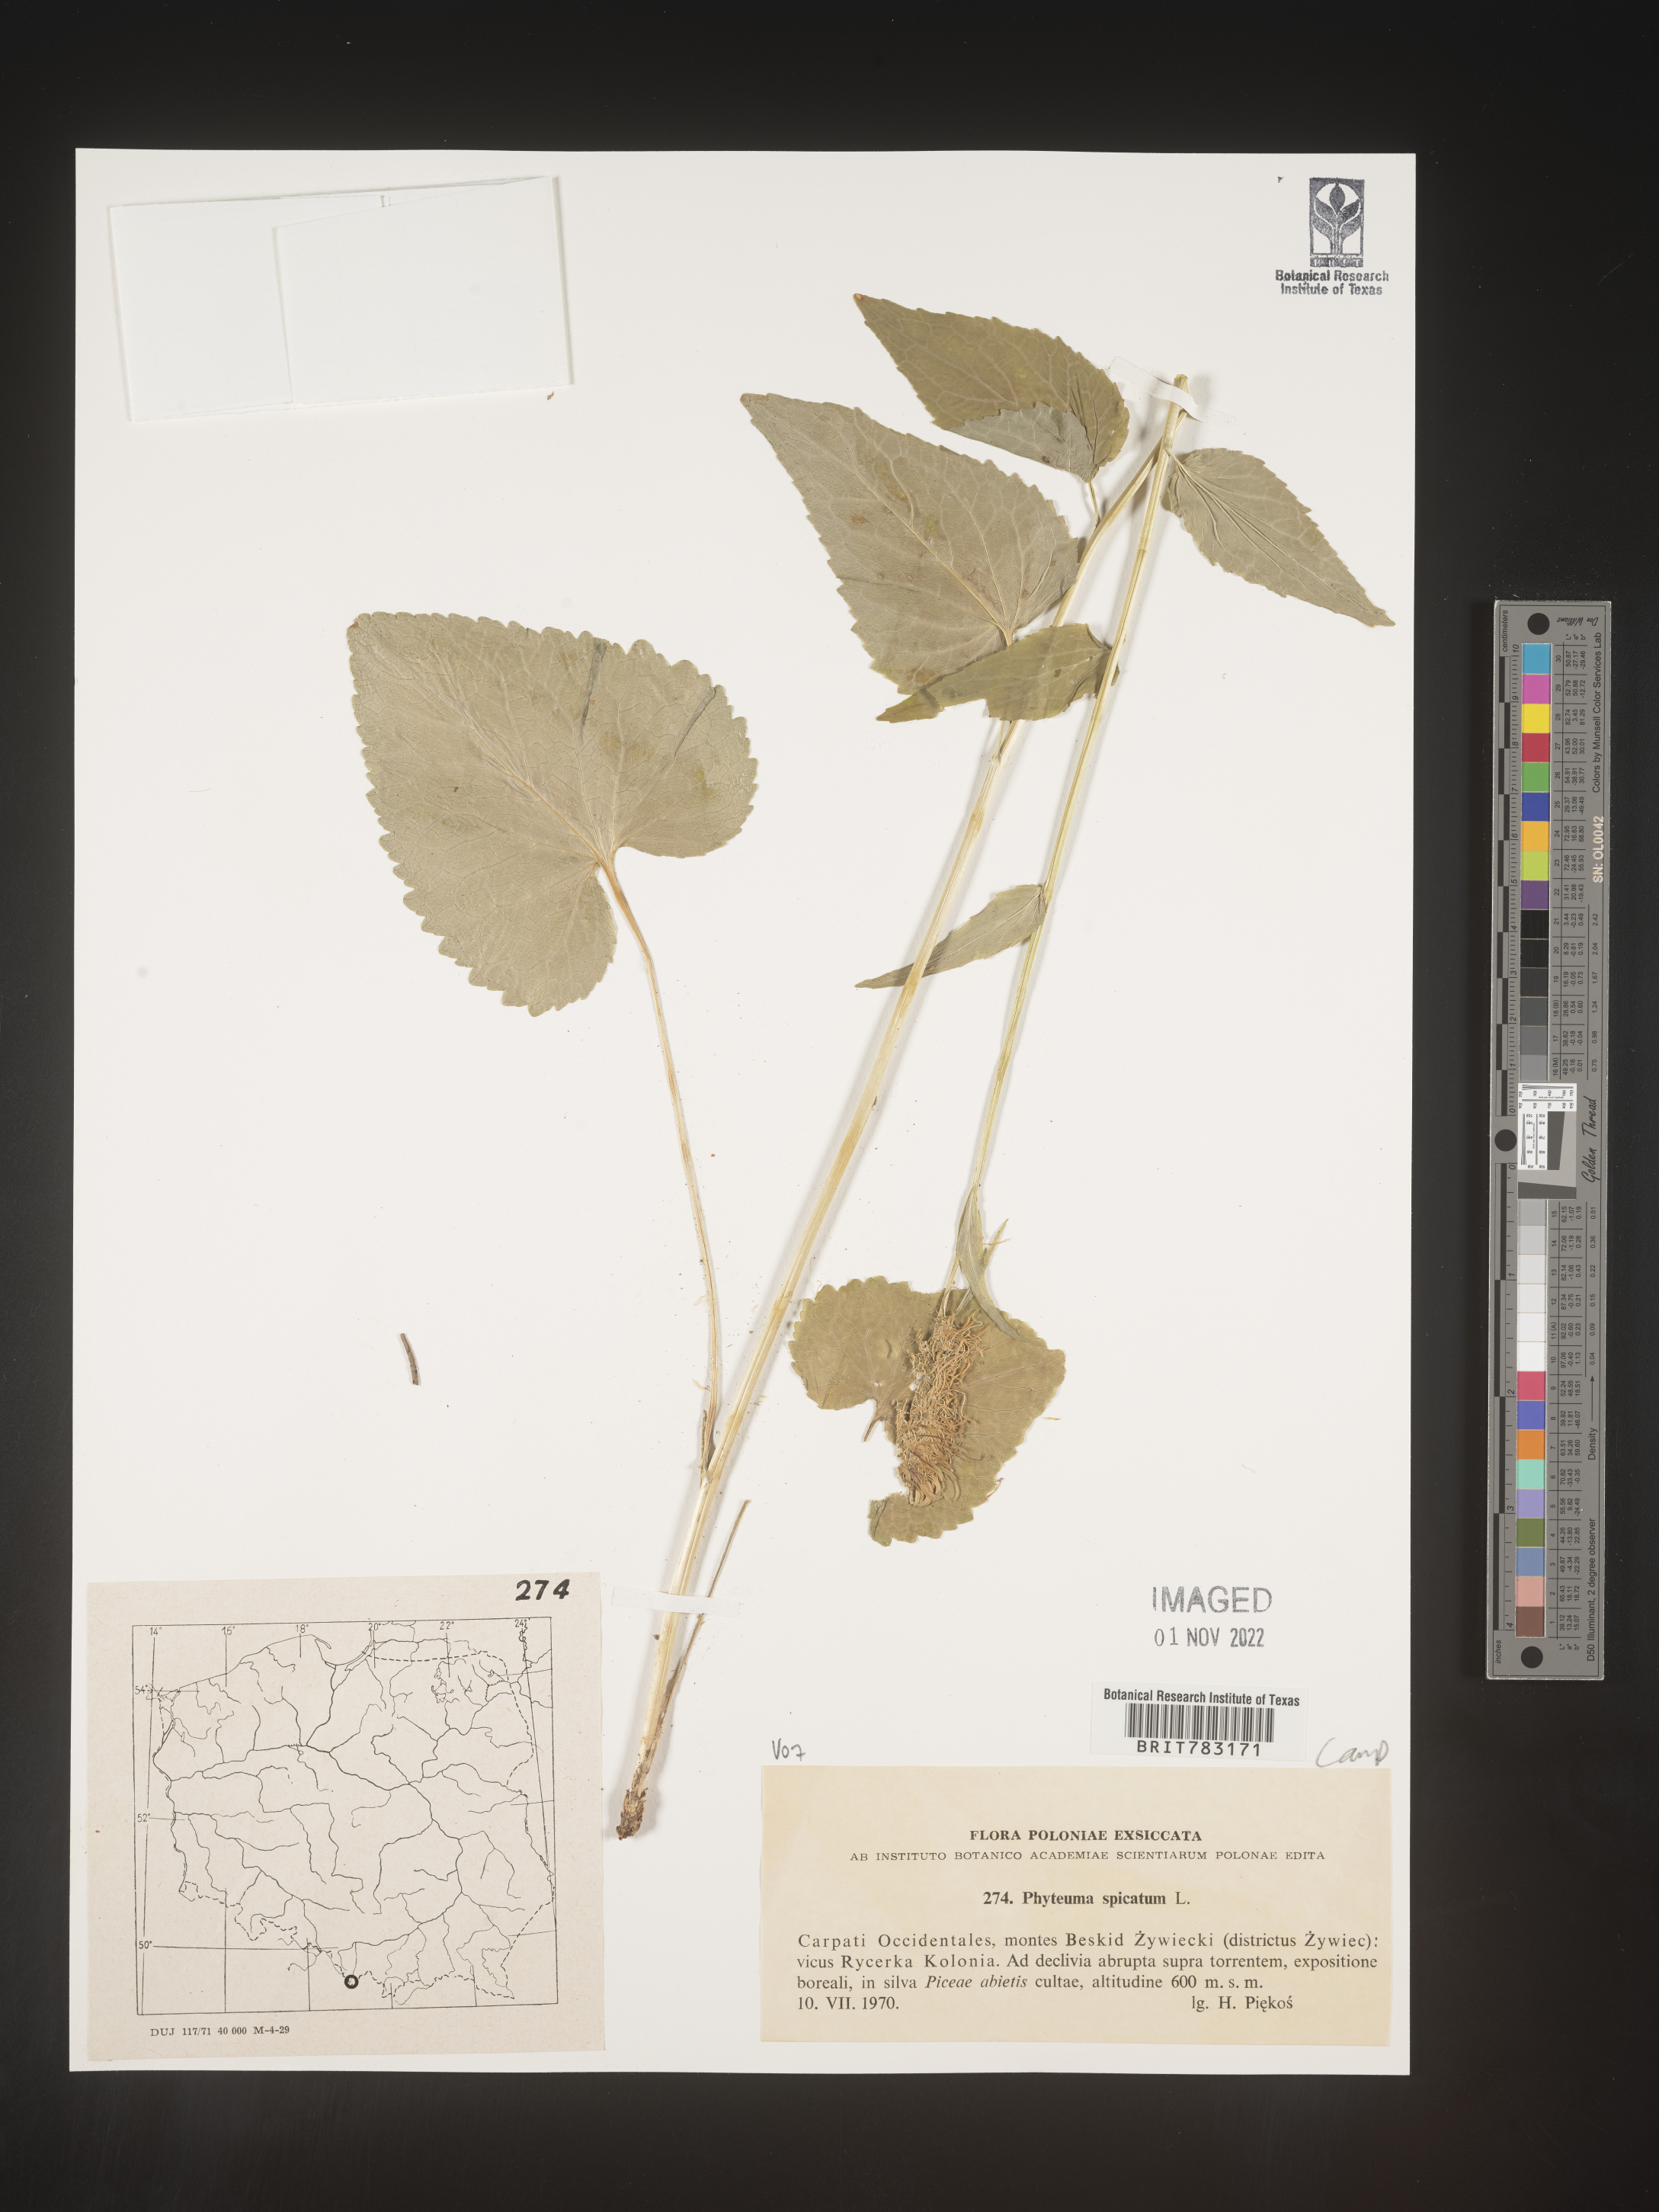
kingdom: Plantae
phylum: Tracheophyta
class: Magnoliopsida
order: Asterales
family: Campanulaceae
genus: Phyteuma
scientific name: Phyteuma
